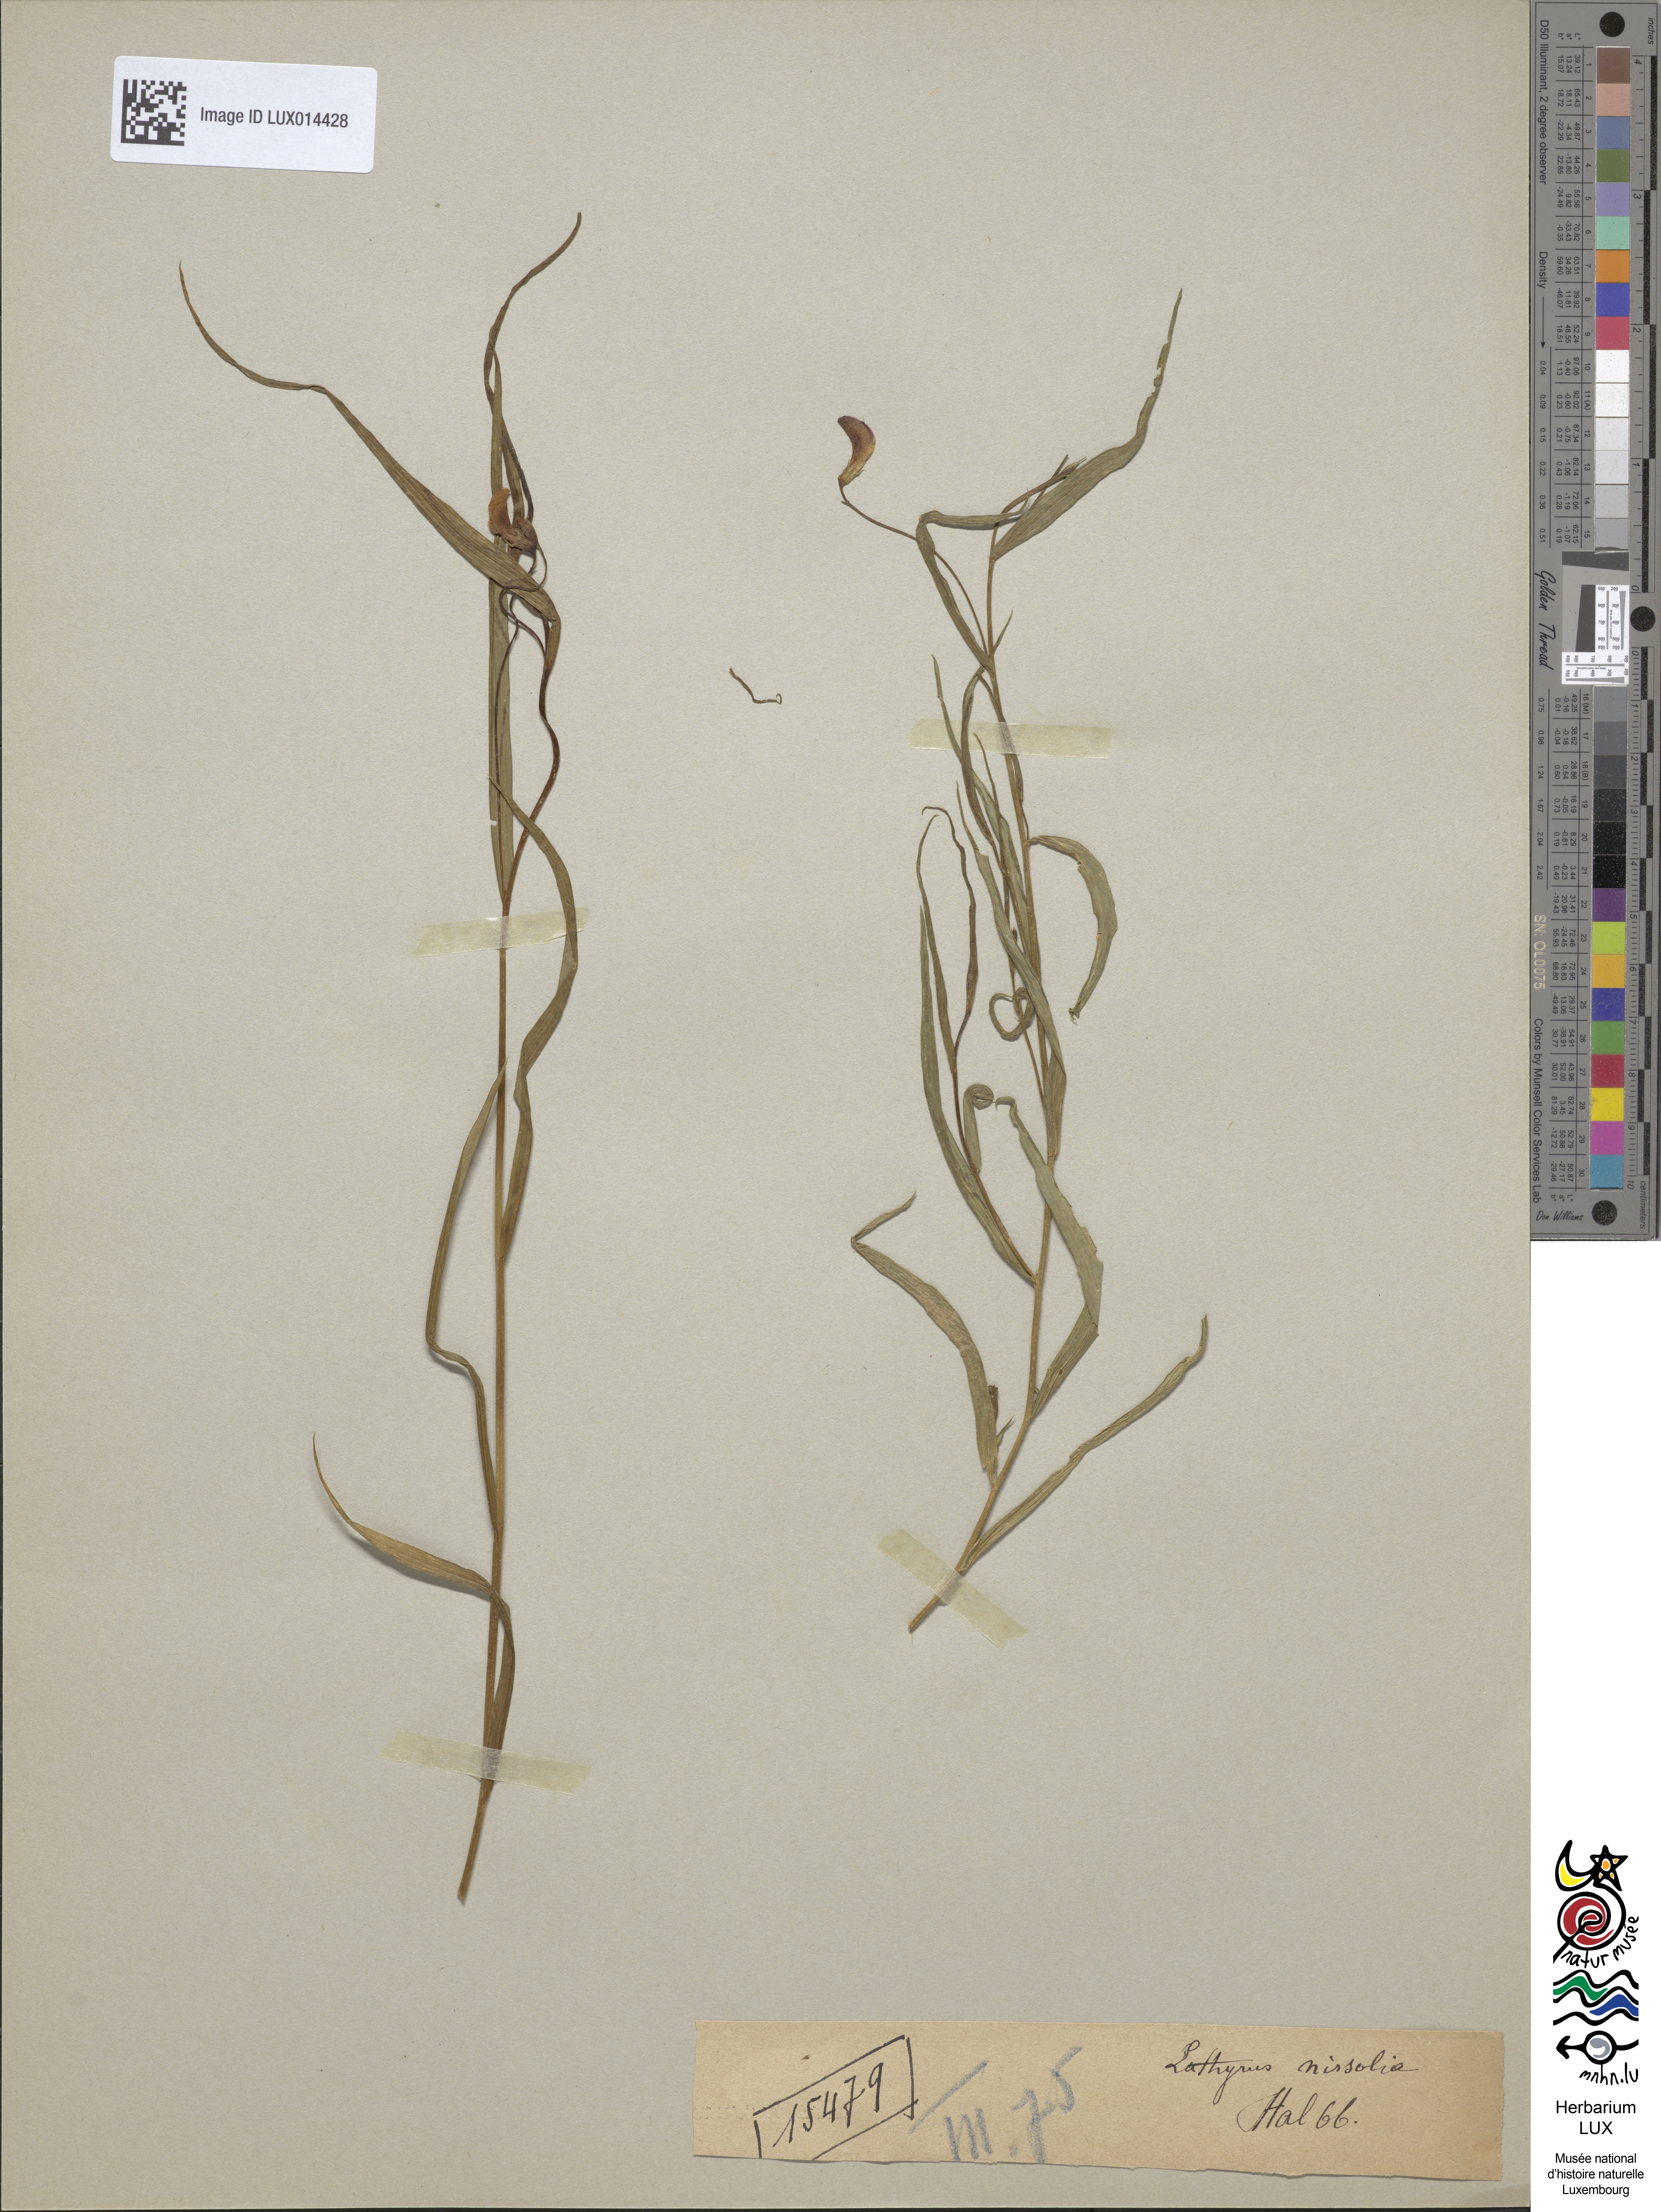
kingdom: Plantae
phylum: Tracheophyta
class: Magnoliopsida
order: Fabales
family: Fabaceae
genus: Lathyrus
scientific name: Lathyrus nissolia
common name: Grass vetchling
